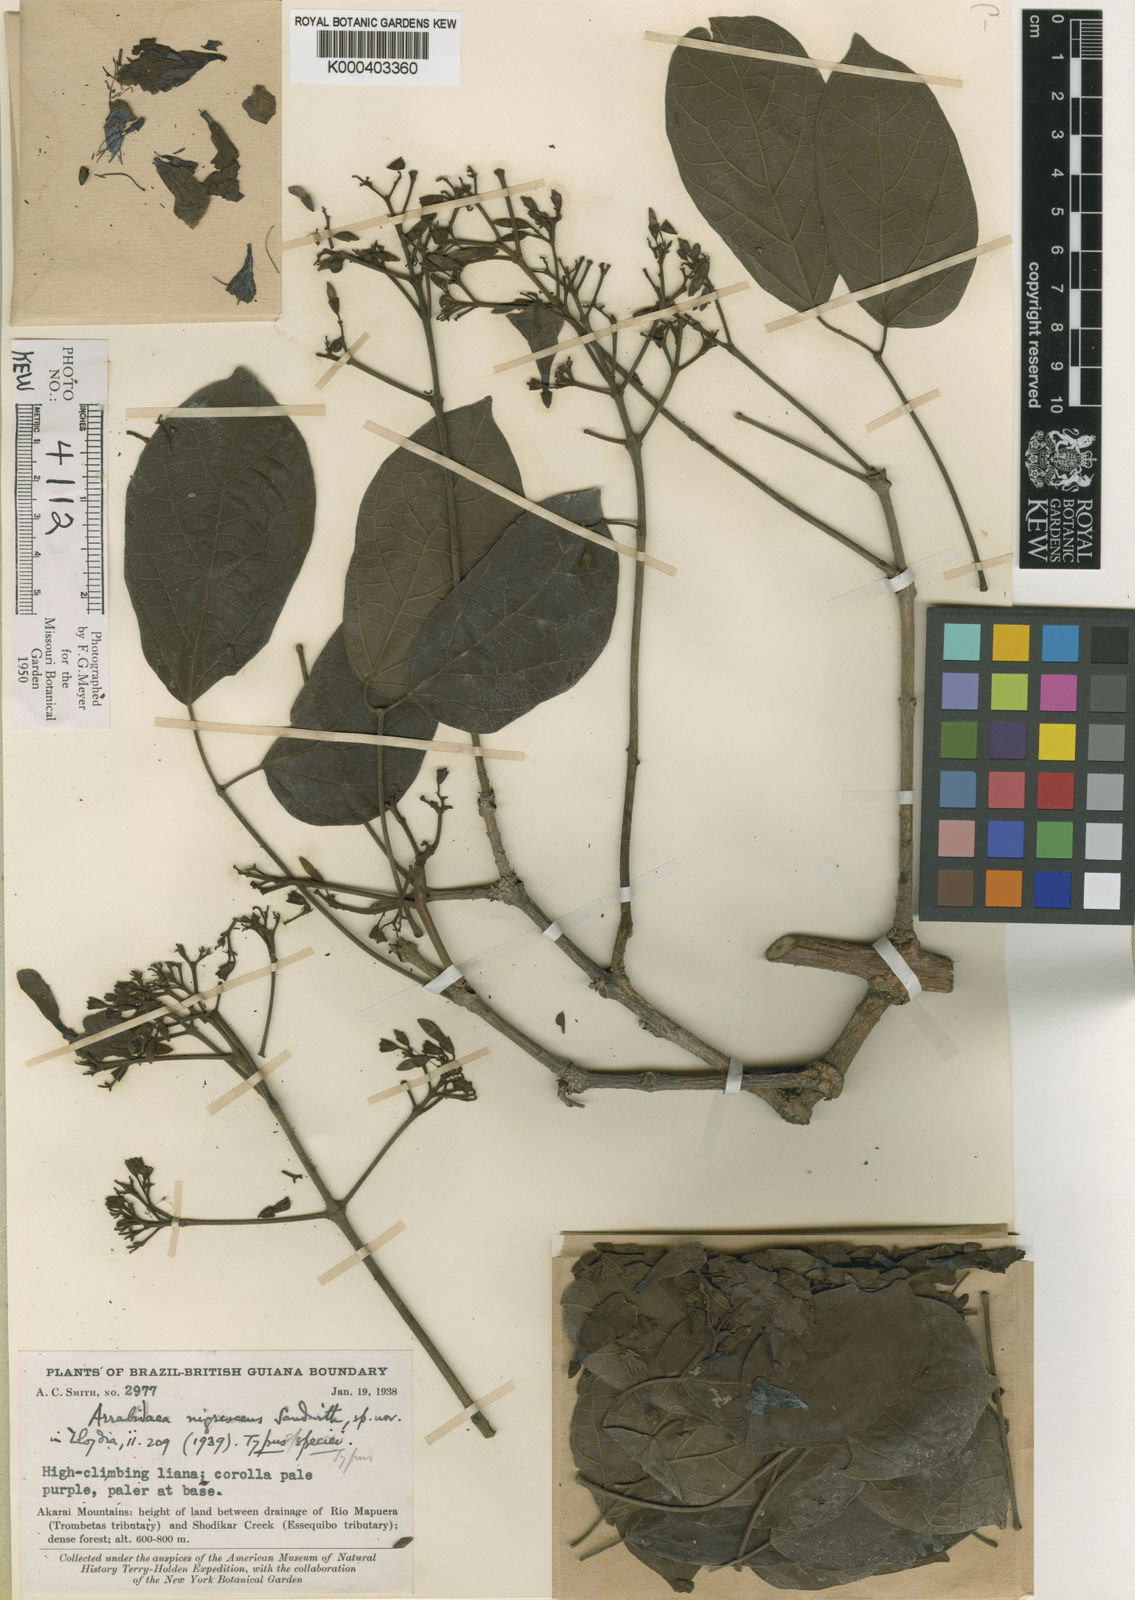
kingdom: Plantae
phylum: Tracheophyta
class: Magnoliopsida
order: Lamiales
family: Bignoniaceae
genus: Fridericia
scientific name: Fridericia nigrescens
